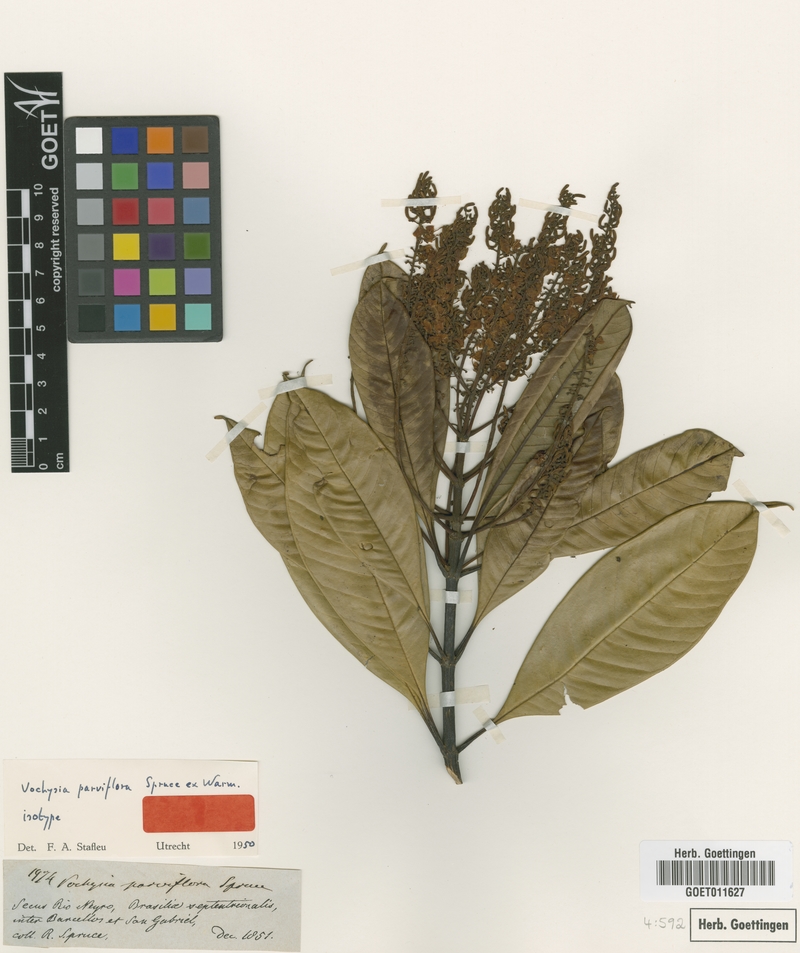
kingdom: Plantae
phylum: Tracheophyta
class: Magnoliopsida
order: Myrtales
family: Vochysiaceae
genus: Vochysia
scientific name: Vochysia parviflora
